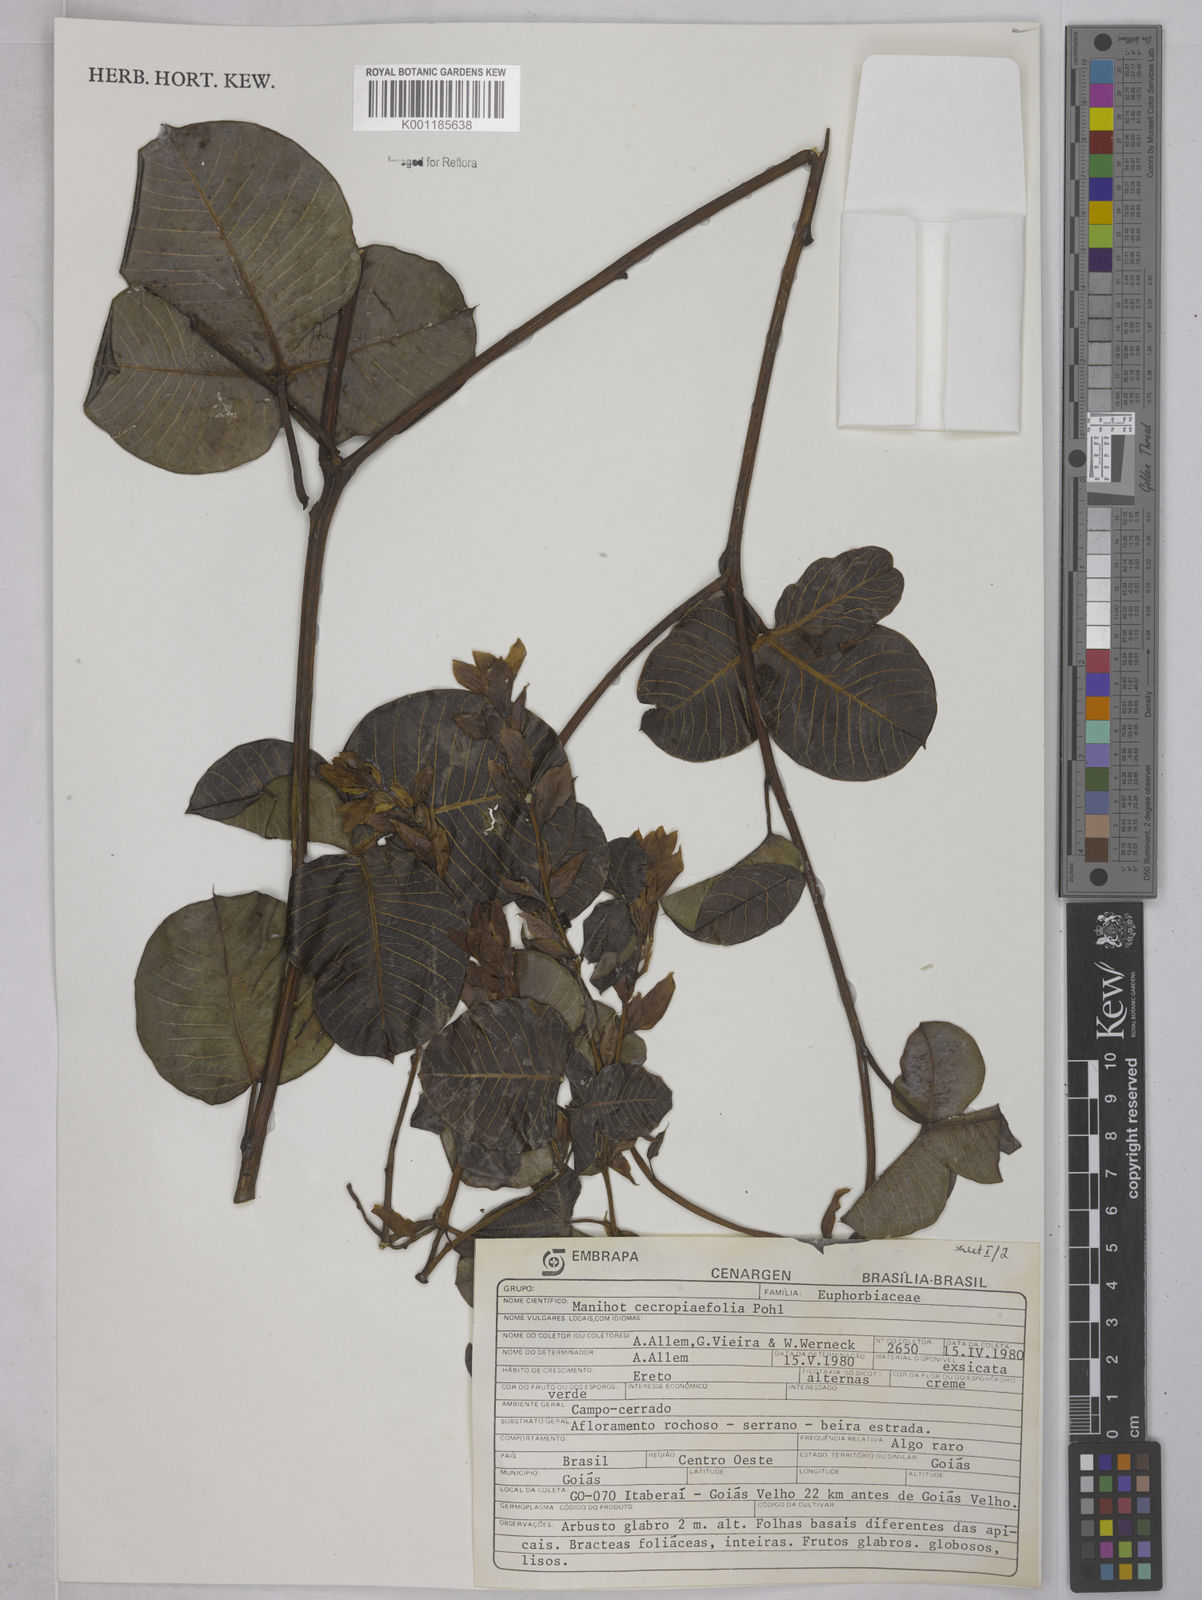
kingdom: Plantae
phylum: Tracheophyta
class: Magnoliopsida
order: Malpighiales
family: Euphorbiaceae
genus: Manihot
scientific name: Manihot cecropiifolia
